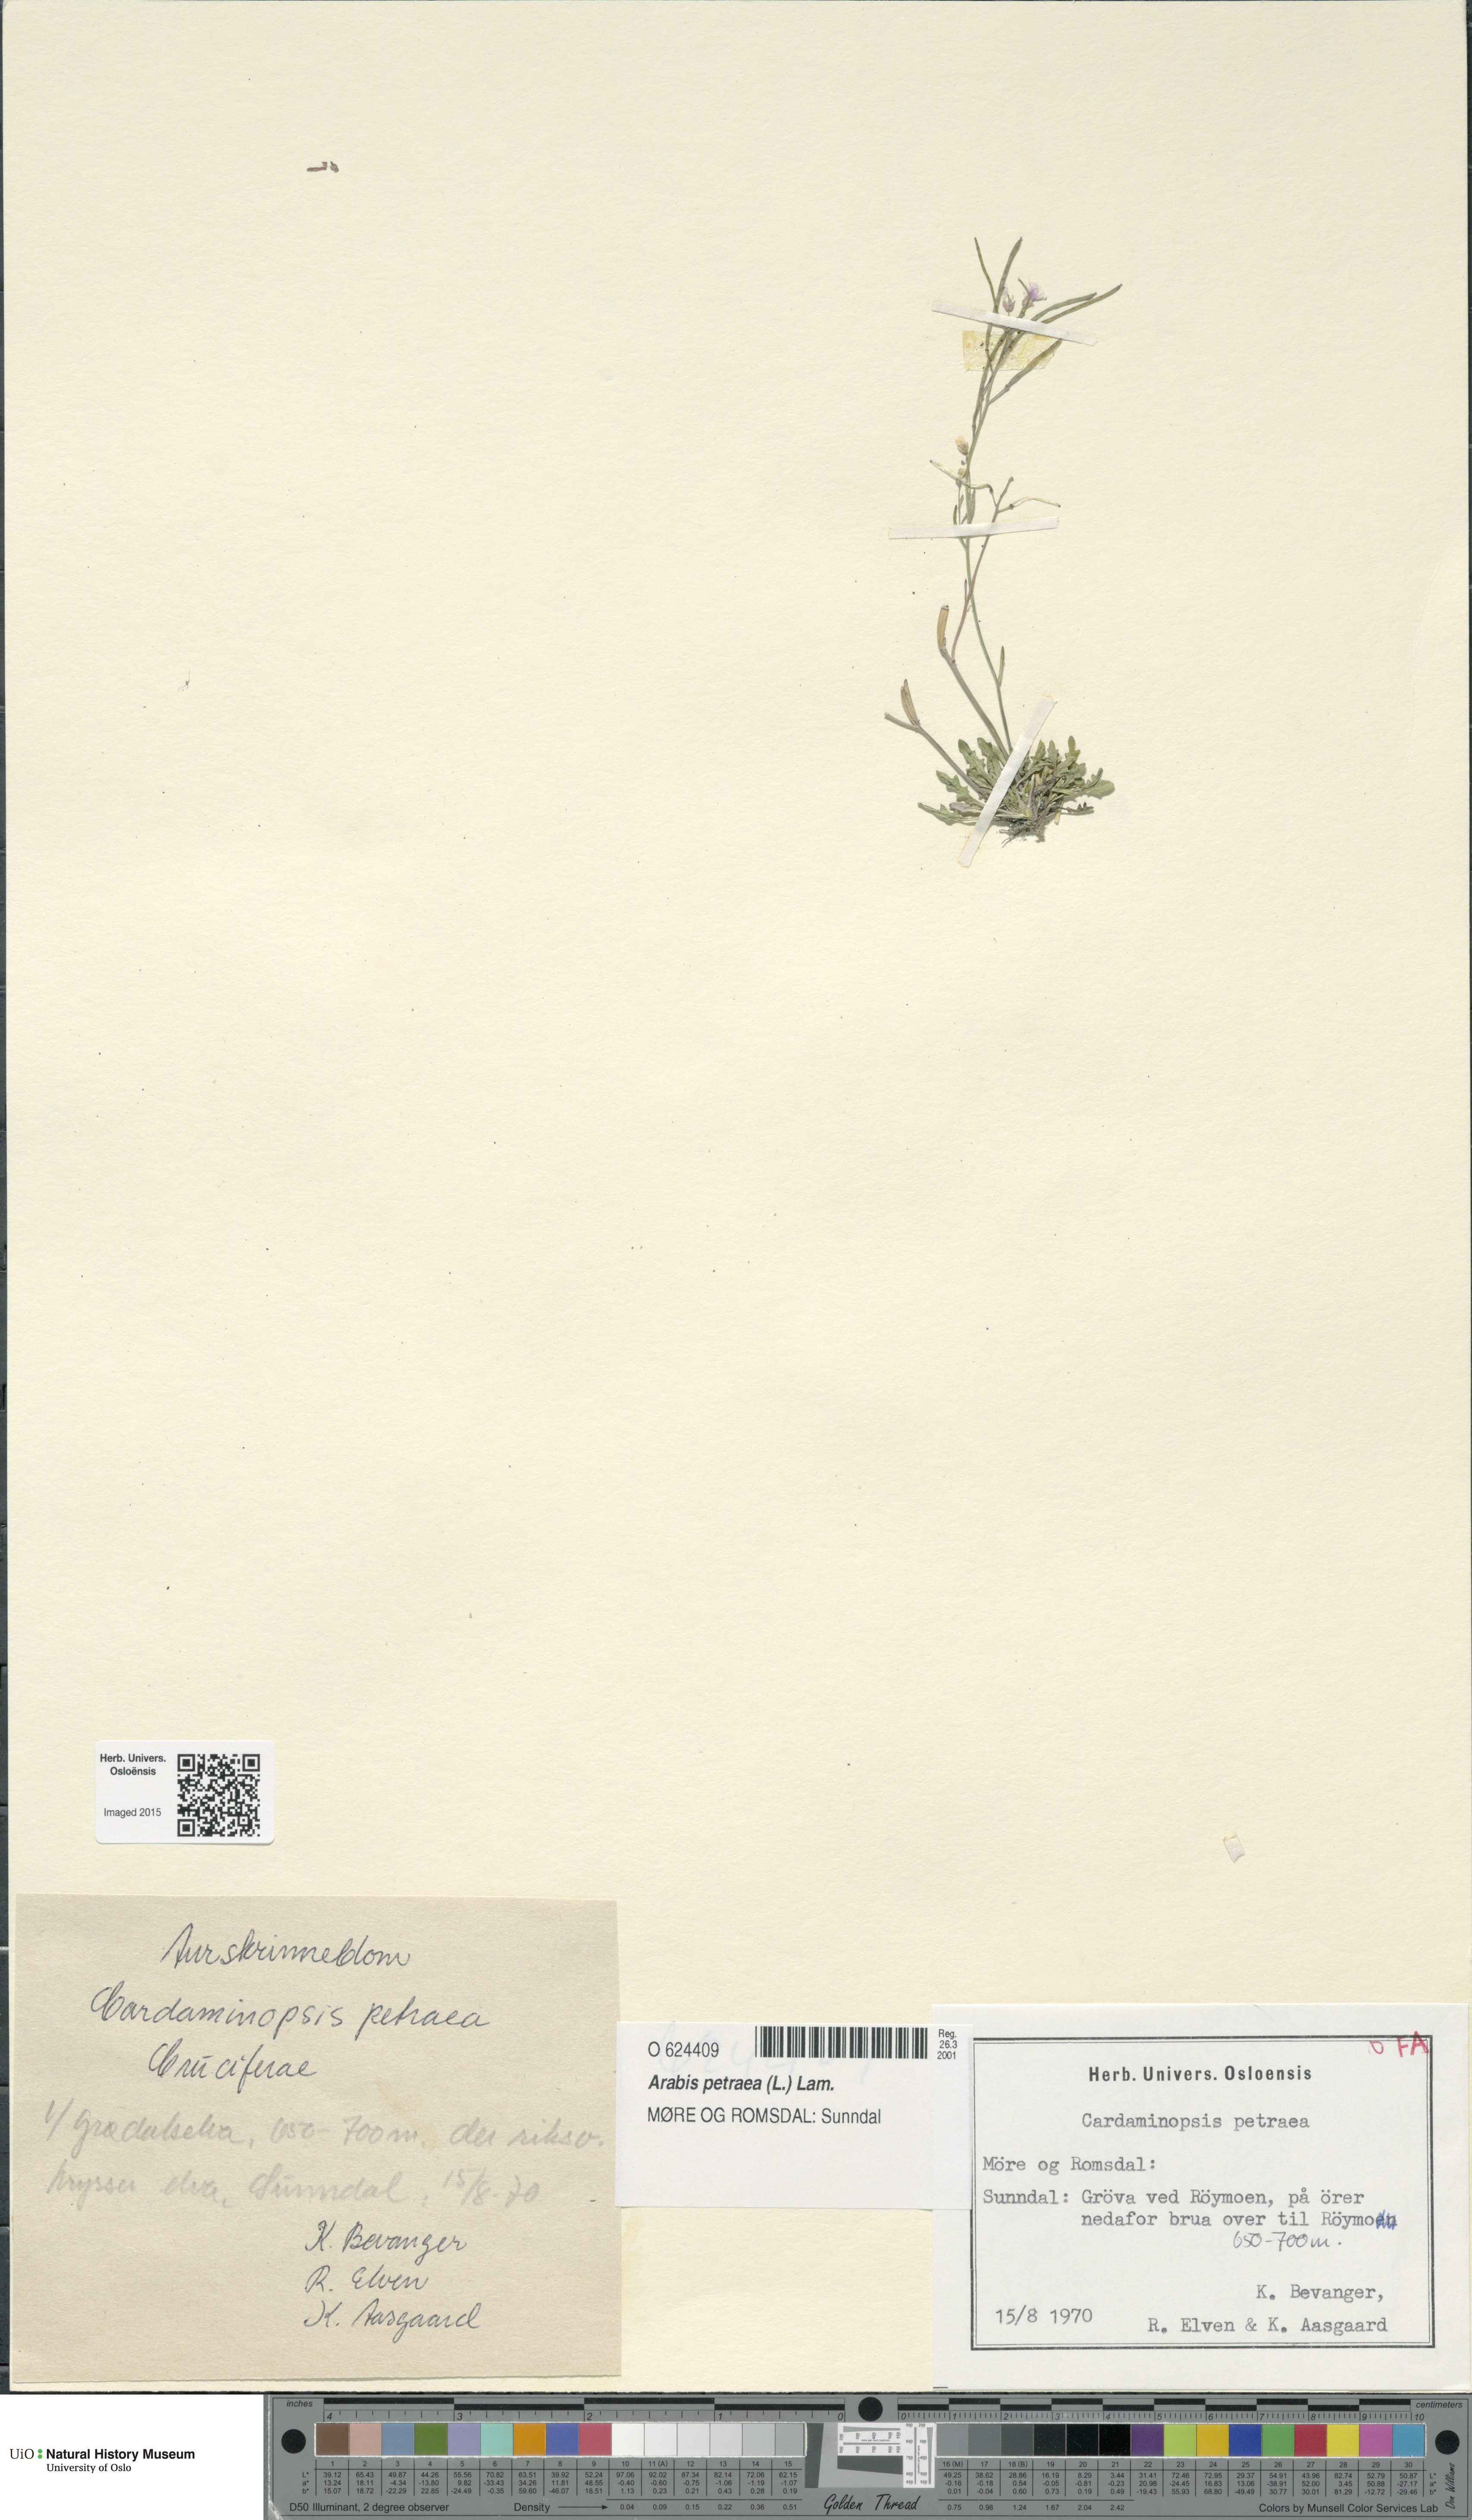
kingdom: Plantae
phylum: Tracheophyta
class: Magnoliopsida
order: Brassicales
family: Brassicaceae
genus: Arabidopsis
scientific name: Arabidopsis petraea
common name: Northern rock-cress
